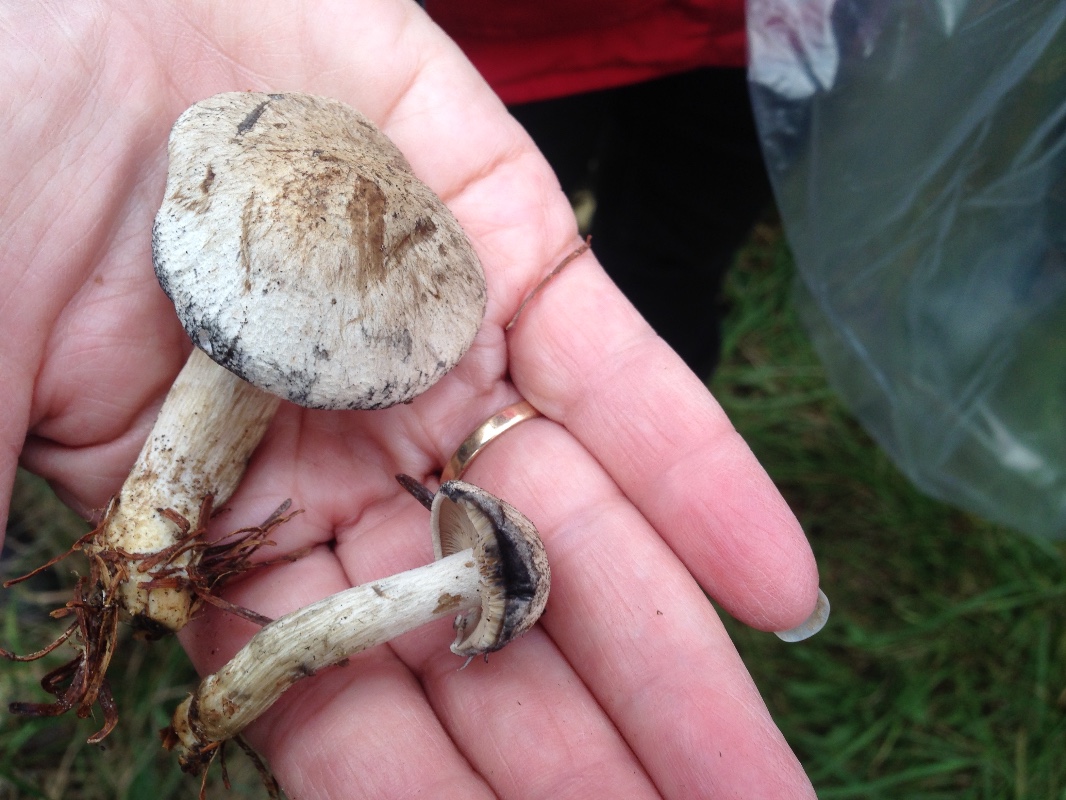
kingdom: Fungi
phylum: Basidiomycota
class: Agaricomycetes
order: Agaricales
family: Lyophyllaceae
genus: Calocybe
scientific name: Calocybe gangraenosa
